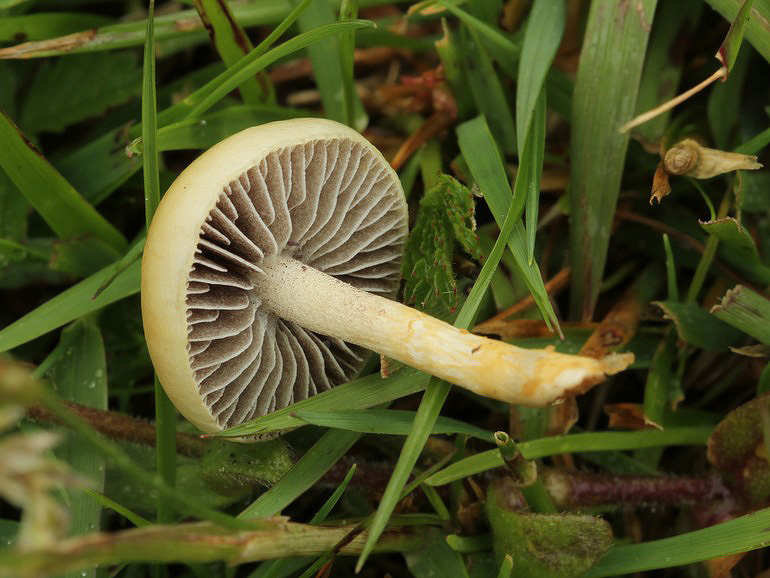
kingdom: Fungi
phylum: Basidiomycota
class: Agaricomycetes
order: Agaricales
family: Strophariaceae
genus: Protostropharia
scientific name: Protostropharia semiglobata
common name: halvkugleformet bredblad
